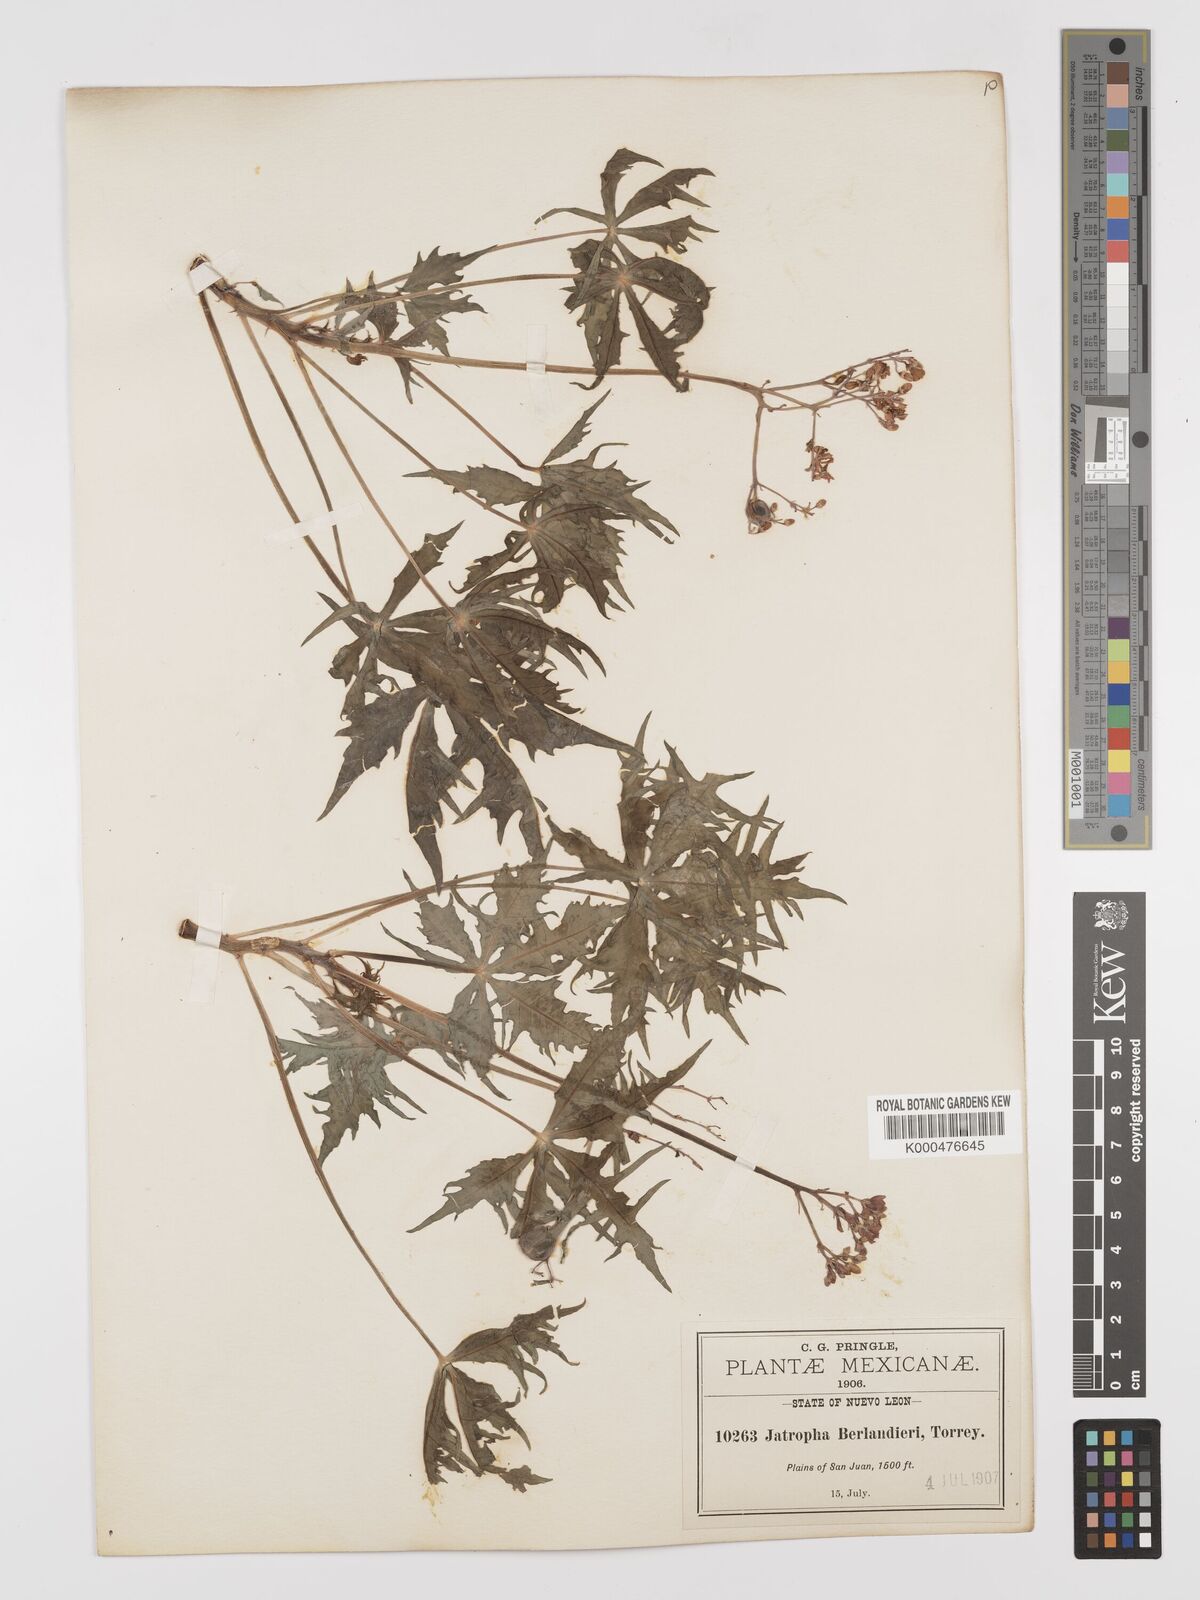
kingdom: Plantae
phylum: Tracheophyta
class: Magnoliopsida
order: Malpighiales
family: Euphorbiaceae
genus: Jatropha
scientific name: Jatropha cathartica
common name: Berlander's nettlespurge
